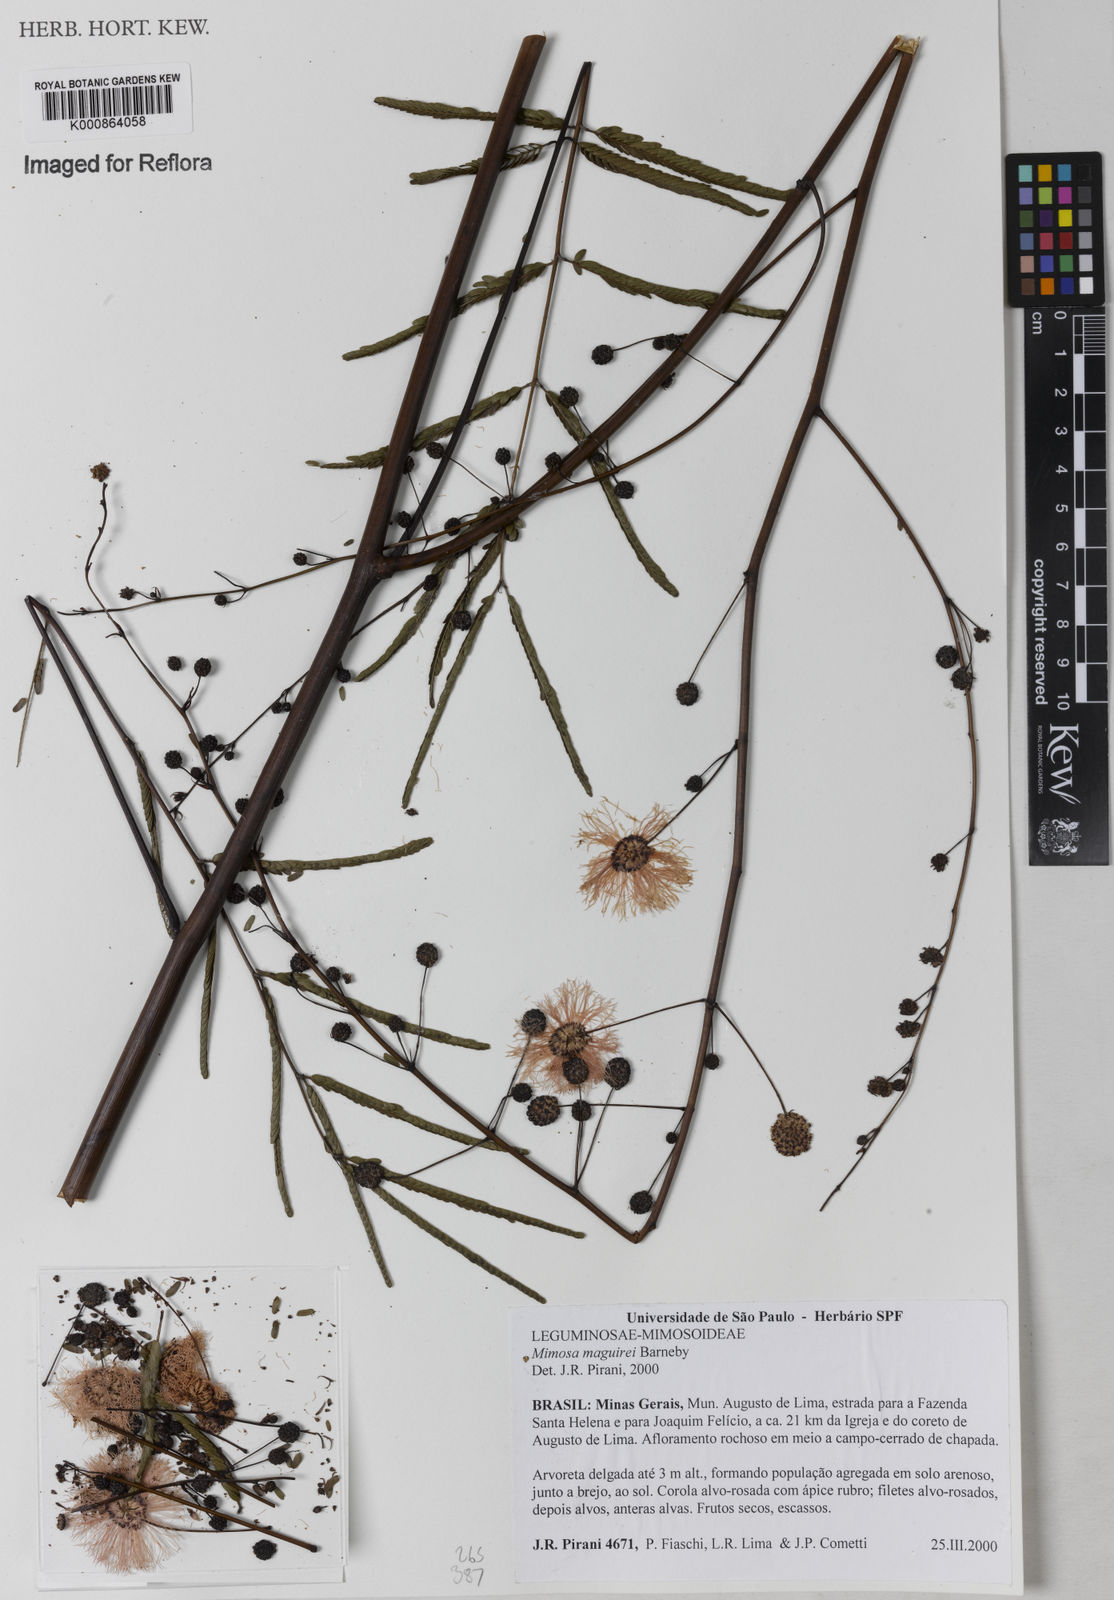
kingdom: Plantae
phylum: Tracheophyta
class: Magnoliopsida
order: Fabales
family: Fabaceae
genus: Mimosa
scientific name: Mimosa maguirei
